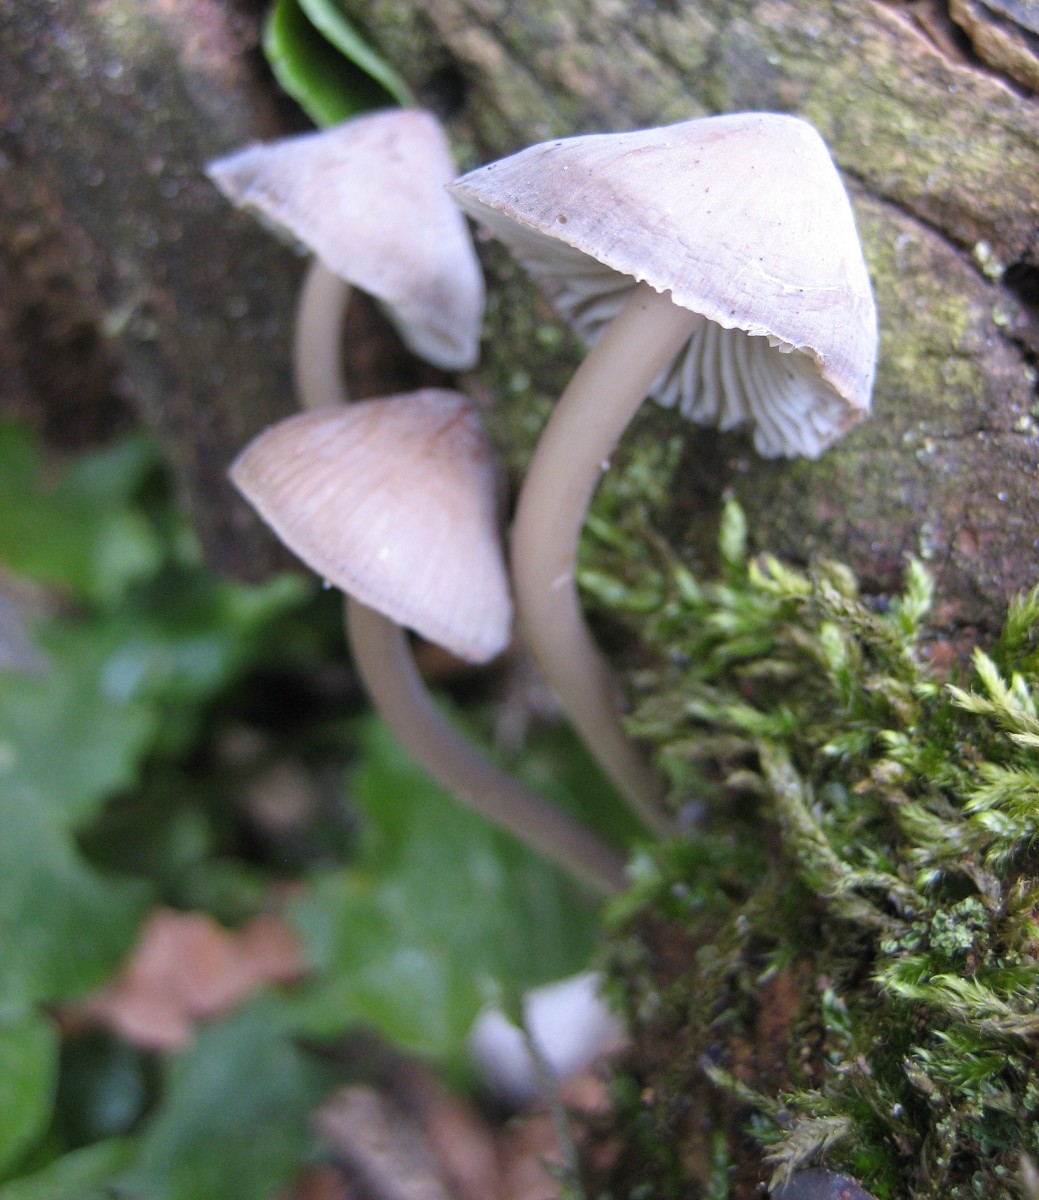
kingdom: Fungi
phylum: Basidiomycota
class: Agaricomycetes
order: Agaricales
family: Mycenaceae
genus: Mycena
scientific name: Mycena galericulata
